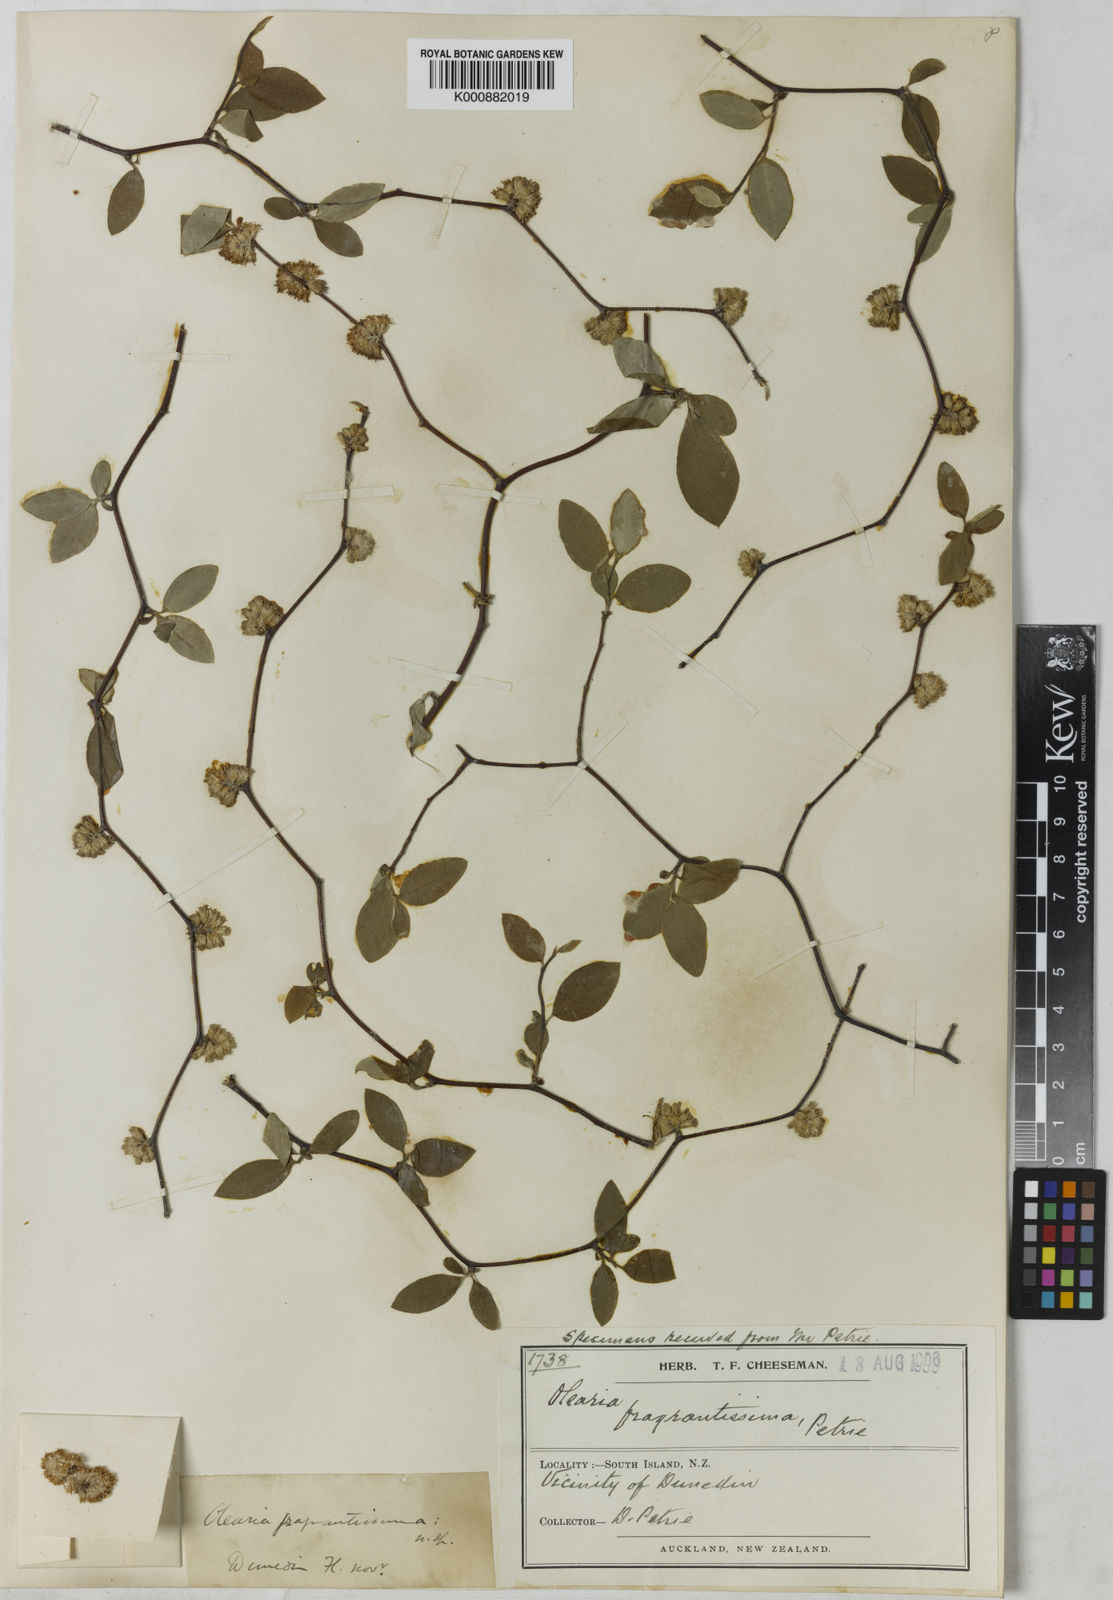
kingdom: Plantae
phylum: Tracheophyta
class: Magnoliopsida
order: Asterales
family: Asteraceae
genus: Olearia
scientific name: Olearia fragrantissima
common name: Fragrant tree daisy
